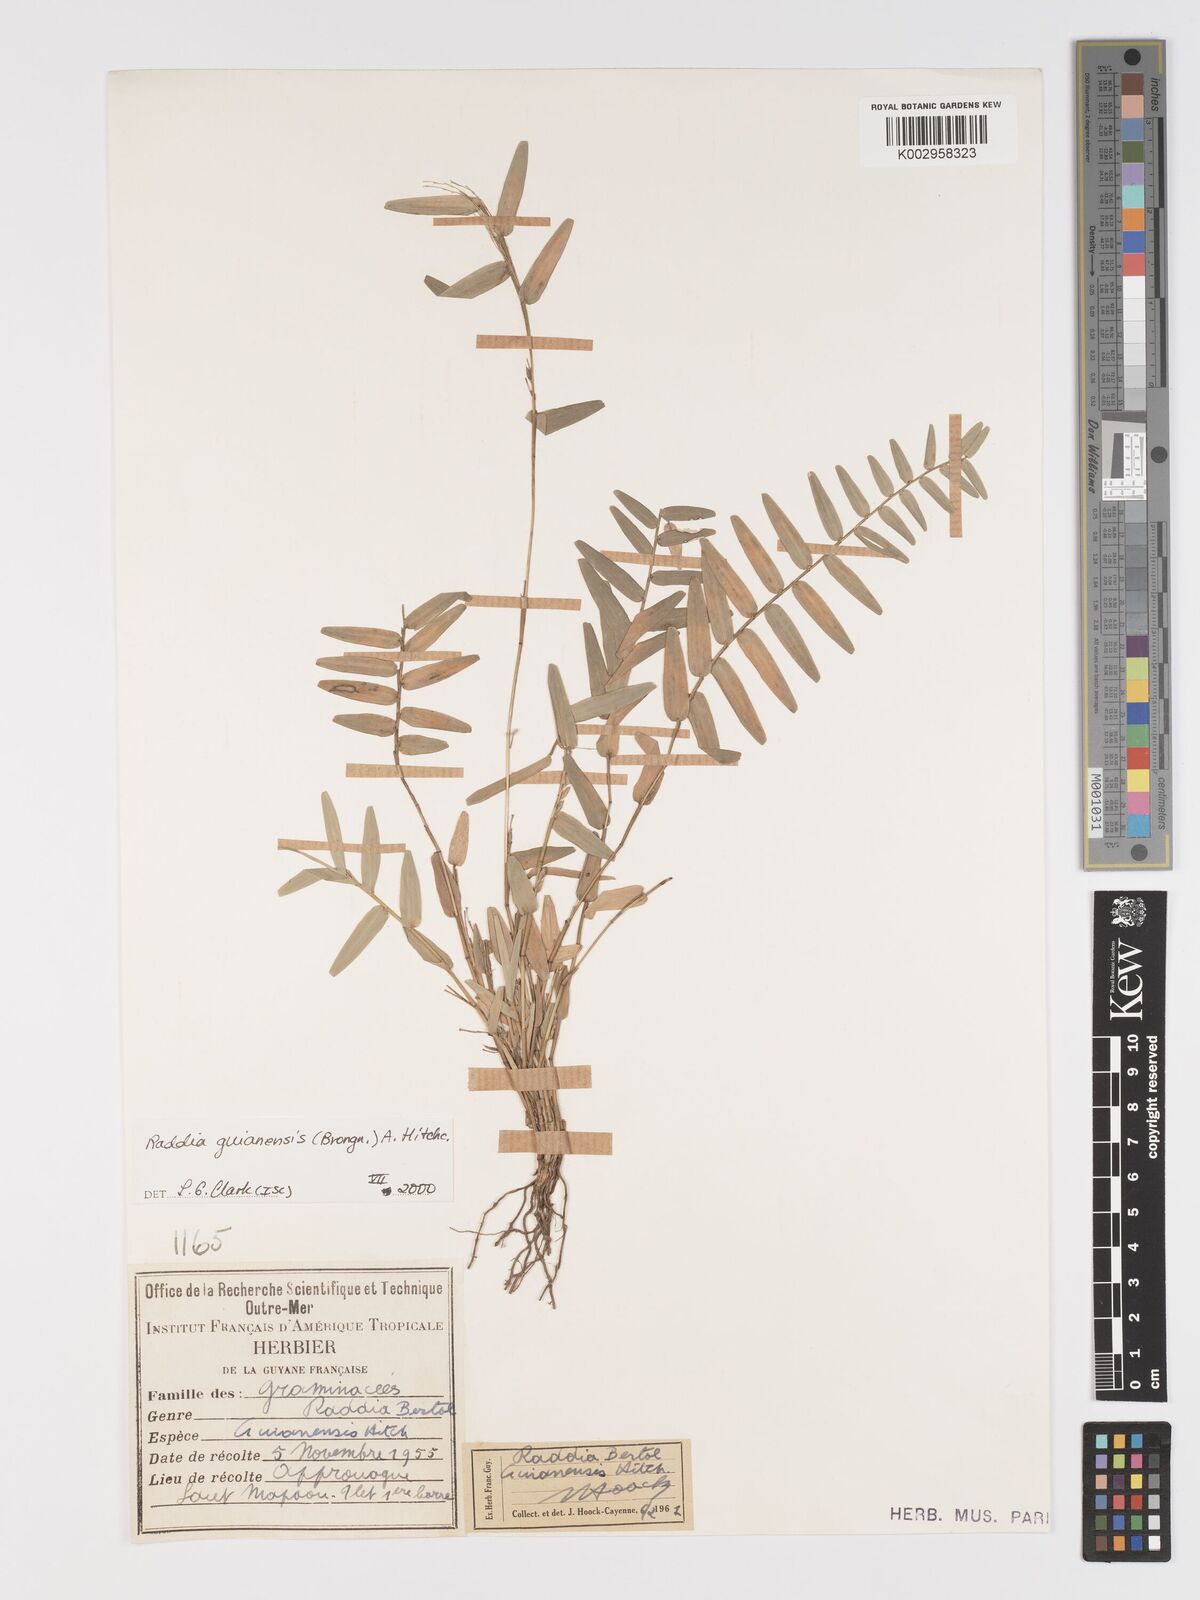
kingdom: Plantae
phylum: Tracheophyta
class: Liliopsida
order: Poales
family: Poaceae
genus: Raddia
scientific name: Raddia guianensis
